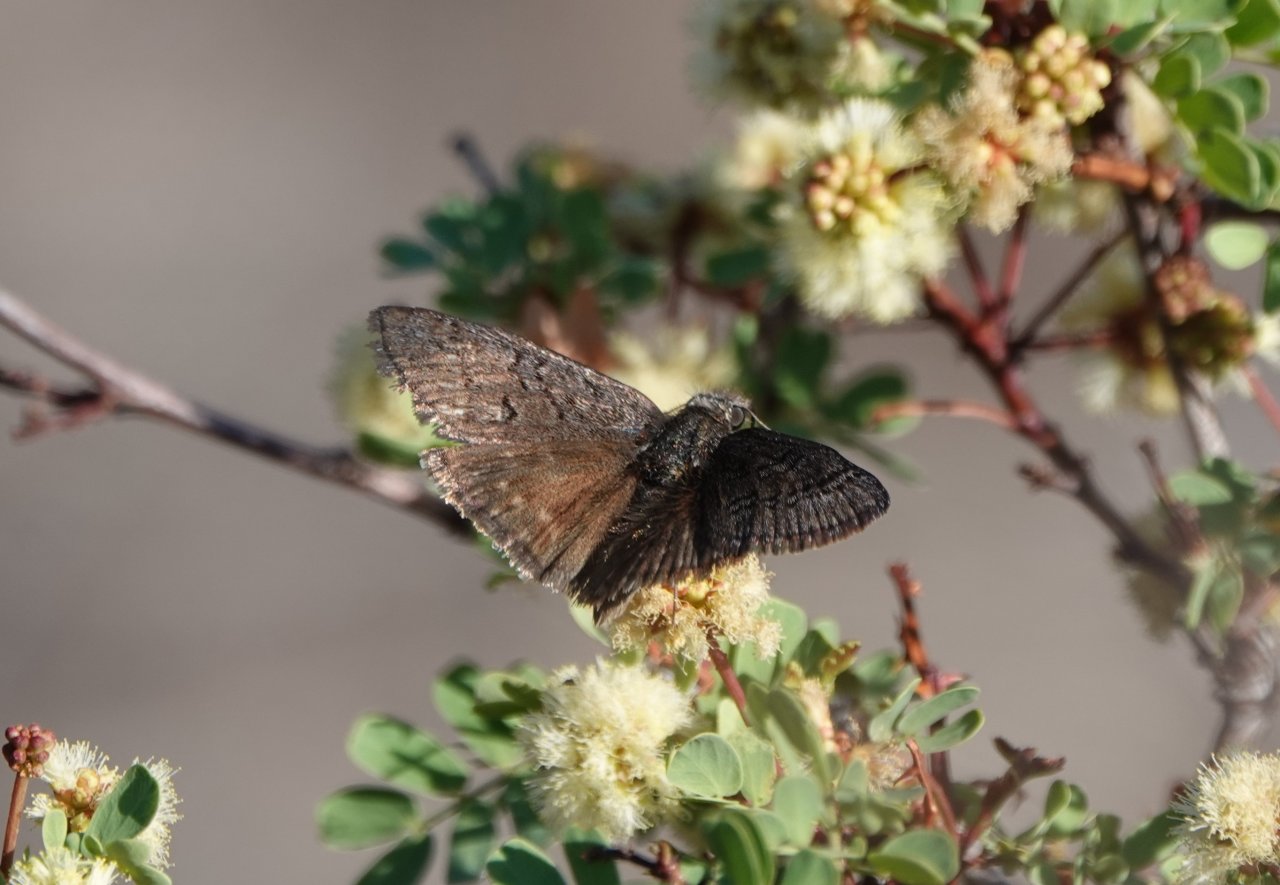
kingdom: Animalia
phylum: Arthropoda
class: Insecta
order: Lepidoptera
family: Hesperiidae
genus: Erynnis
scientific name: Erynnis brizo
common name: Sleepy Duskywing
